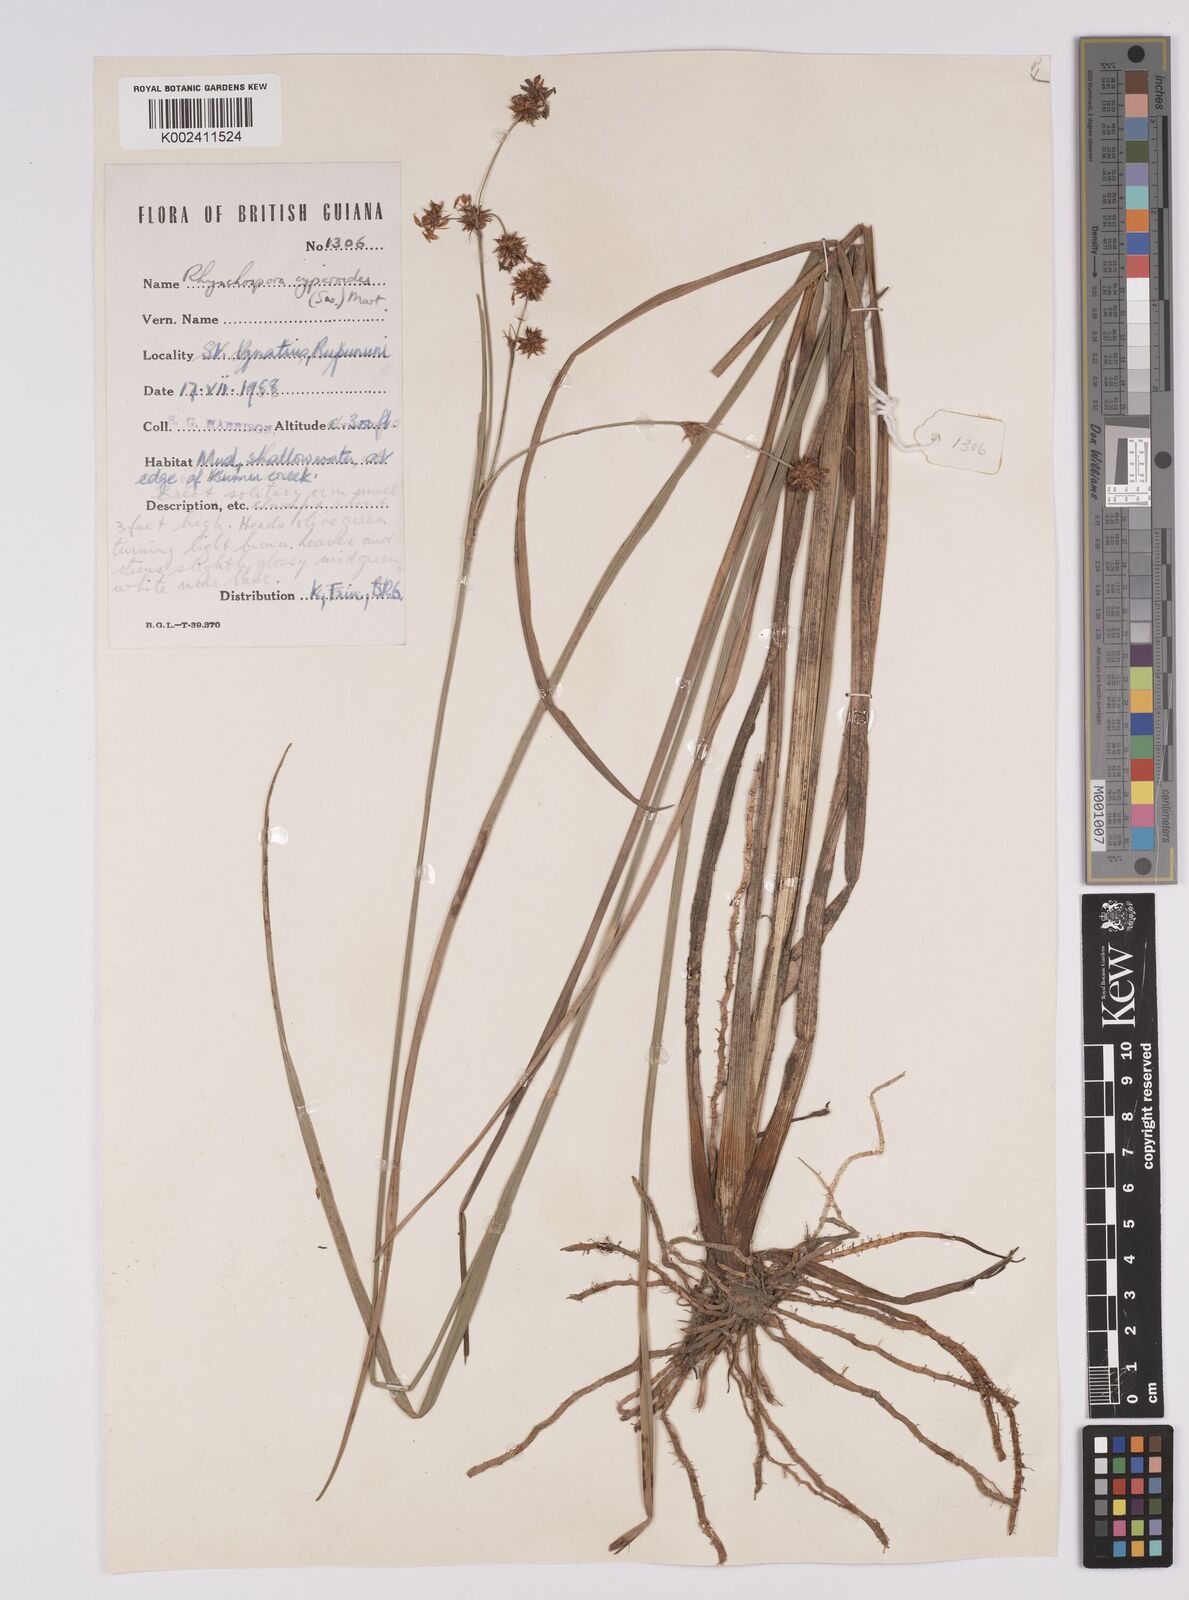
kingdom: Plantae
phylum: Tracheophyta
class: Liliopsida
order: Poales
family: Cyperaceae
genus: Rhynchospora
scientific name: Rhynchospora holoschoenoides
